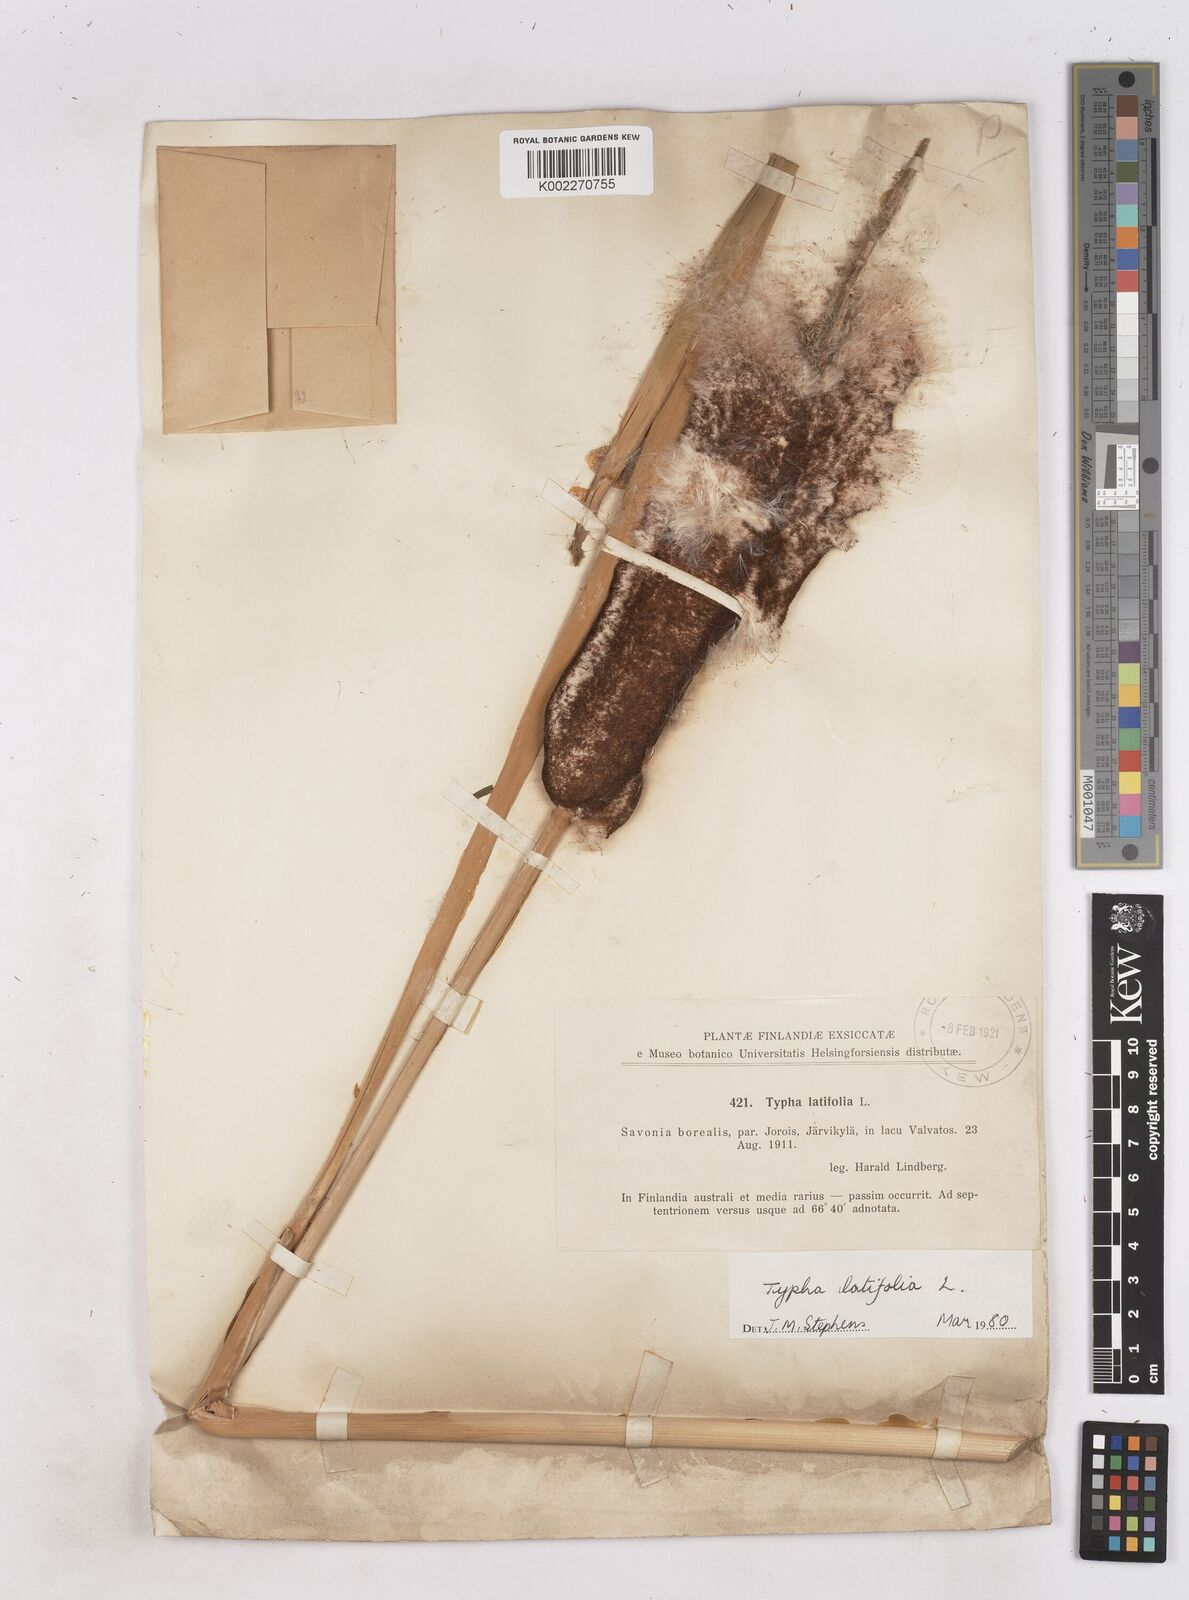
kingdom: Plantae
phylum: Tracheophyta
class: Liliopsida
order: Poales
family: Typhaceae
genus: Typha
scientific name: Typha latifolia
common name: Broadleaf cattail
